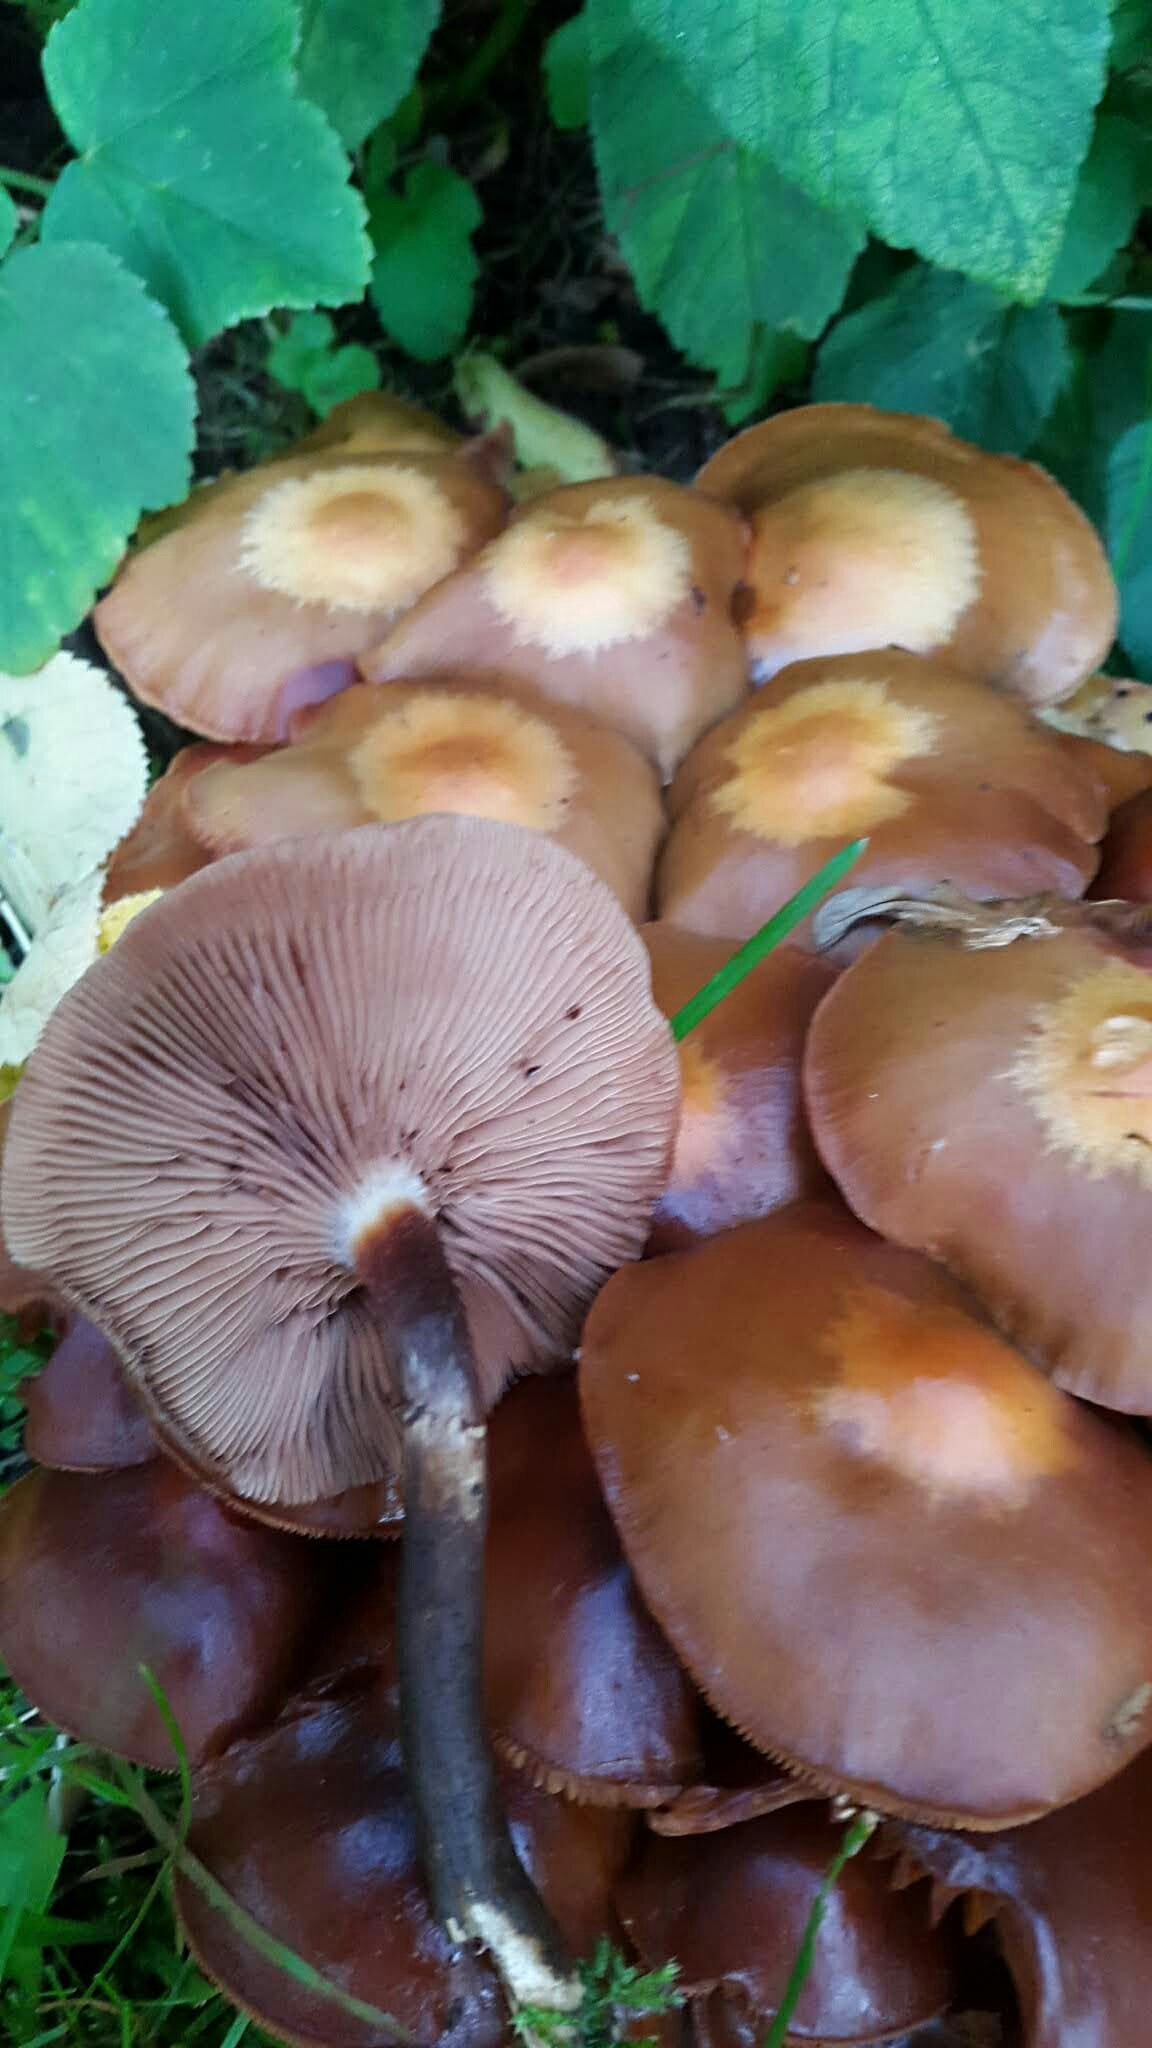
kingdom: Fungi
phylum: Basidiomycota
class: Agaricomycetes
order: Agaricales
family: Strophariaceae
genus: Kuehneromyces
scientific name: Kuehneromyces mutabilis
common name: foranderlig skælhat
